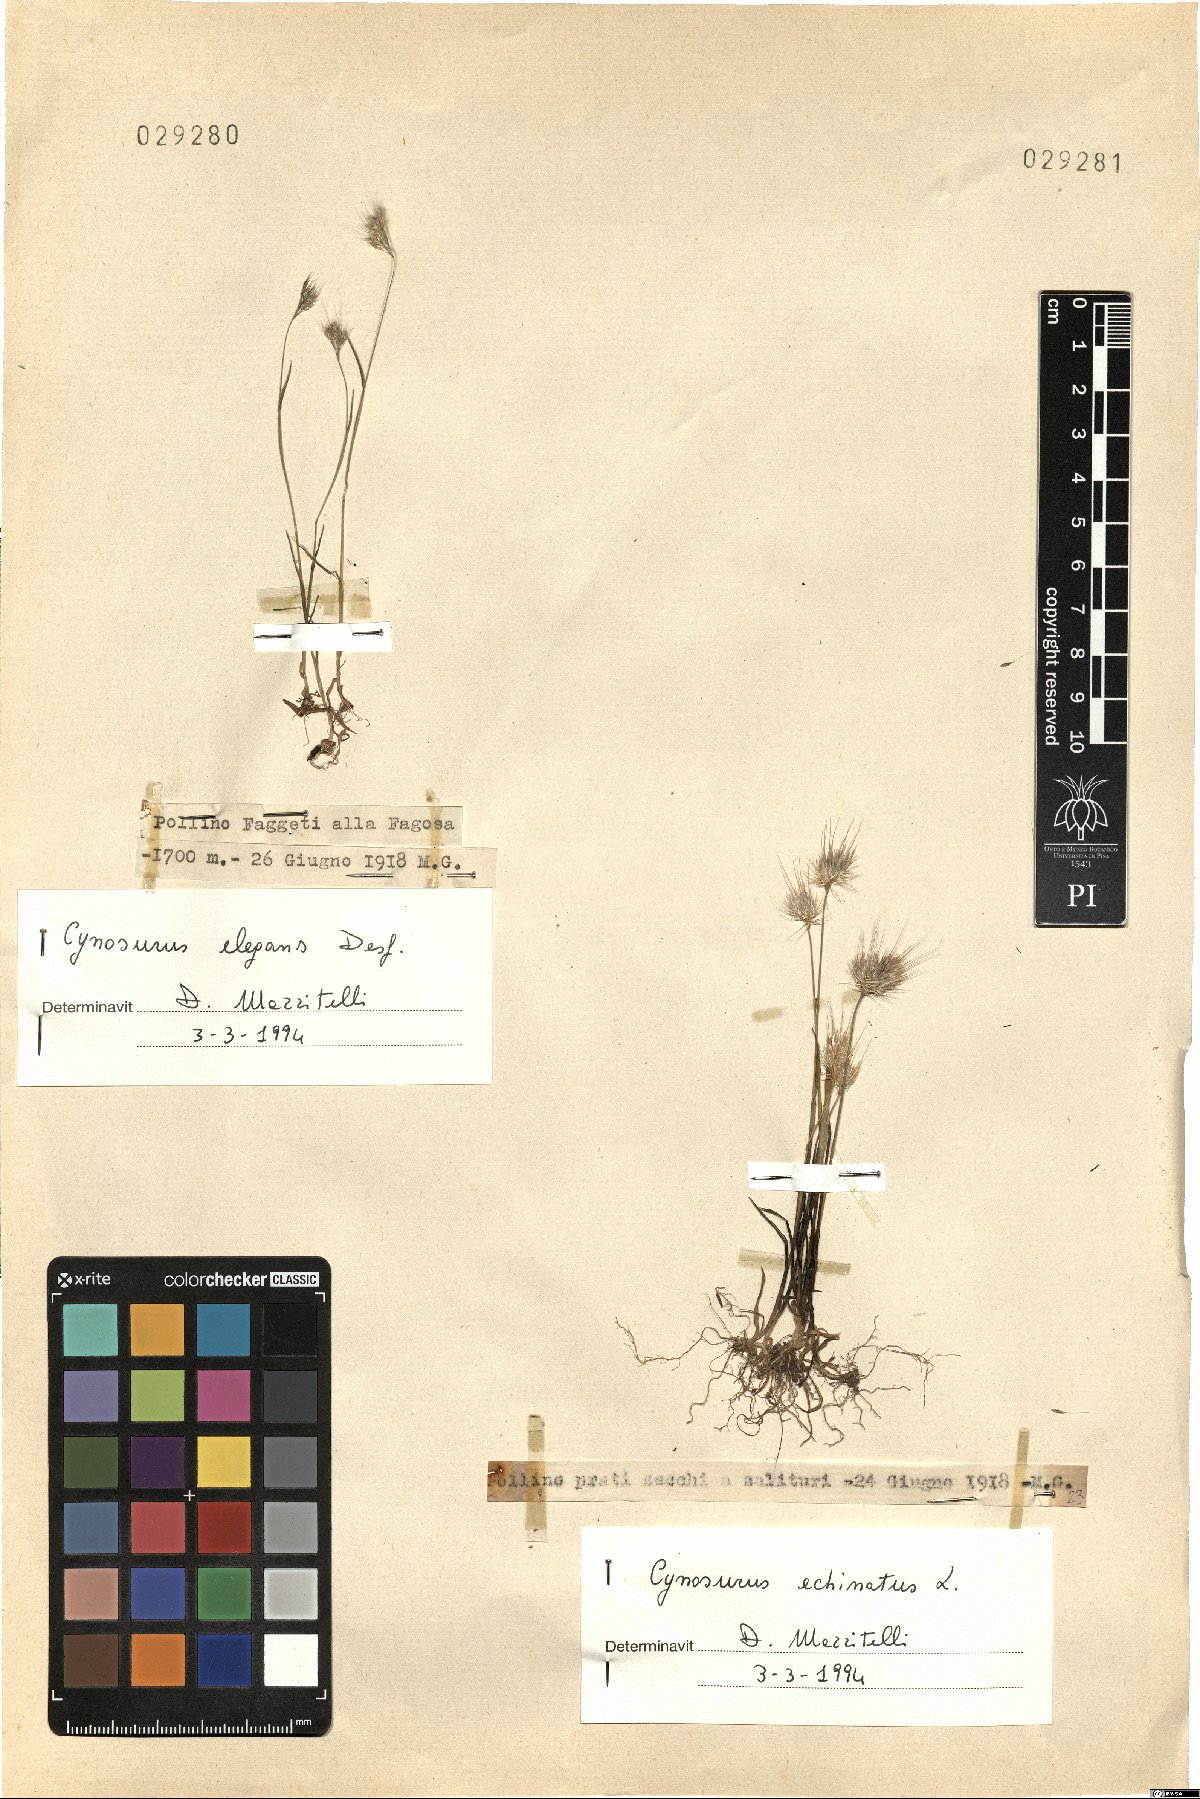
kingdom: Plantae
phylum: Tracheophyta
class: Liliopsida
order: Poales
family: Poaceae
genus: Cynosurus
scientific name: Cynosurus elegans
